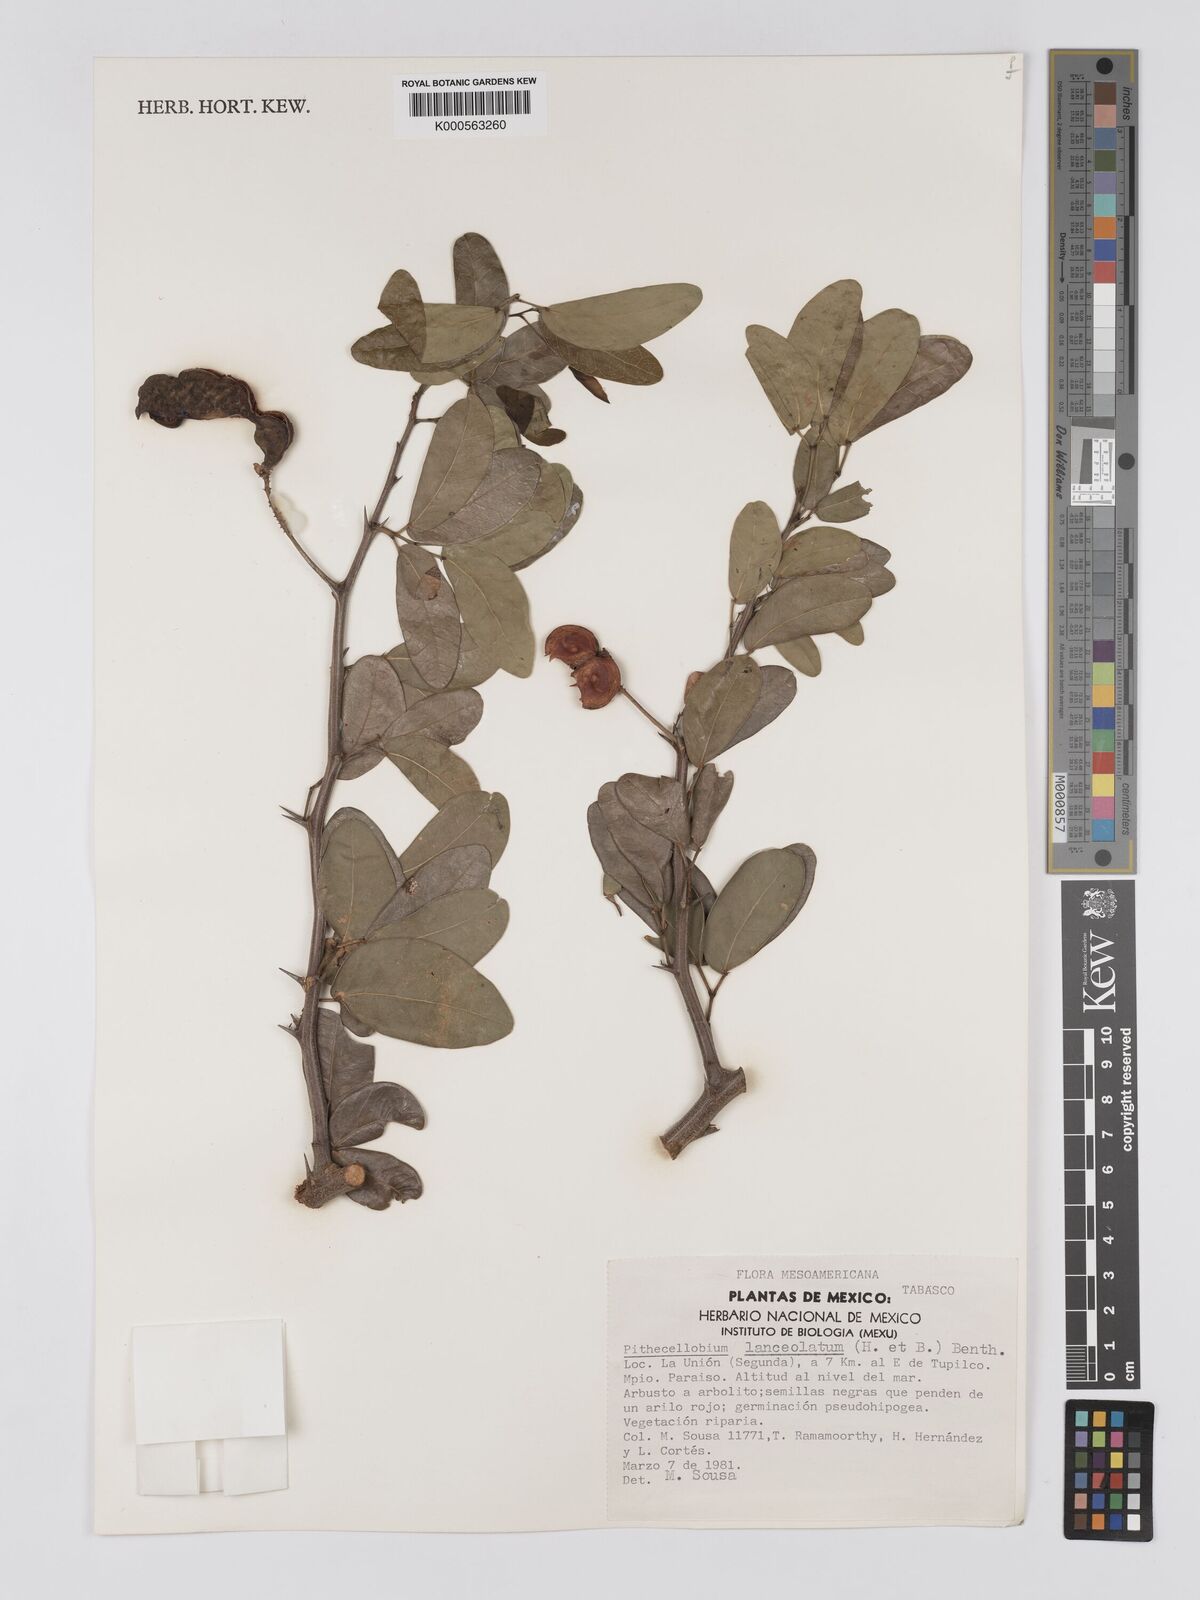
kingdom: Plantae
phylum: Tracheophyta
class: Magnoliopsida
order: Fabales
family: Fabaceae
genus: Pithecellobium
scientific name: Pithecellobium lanceolatum
